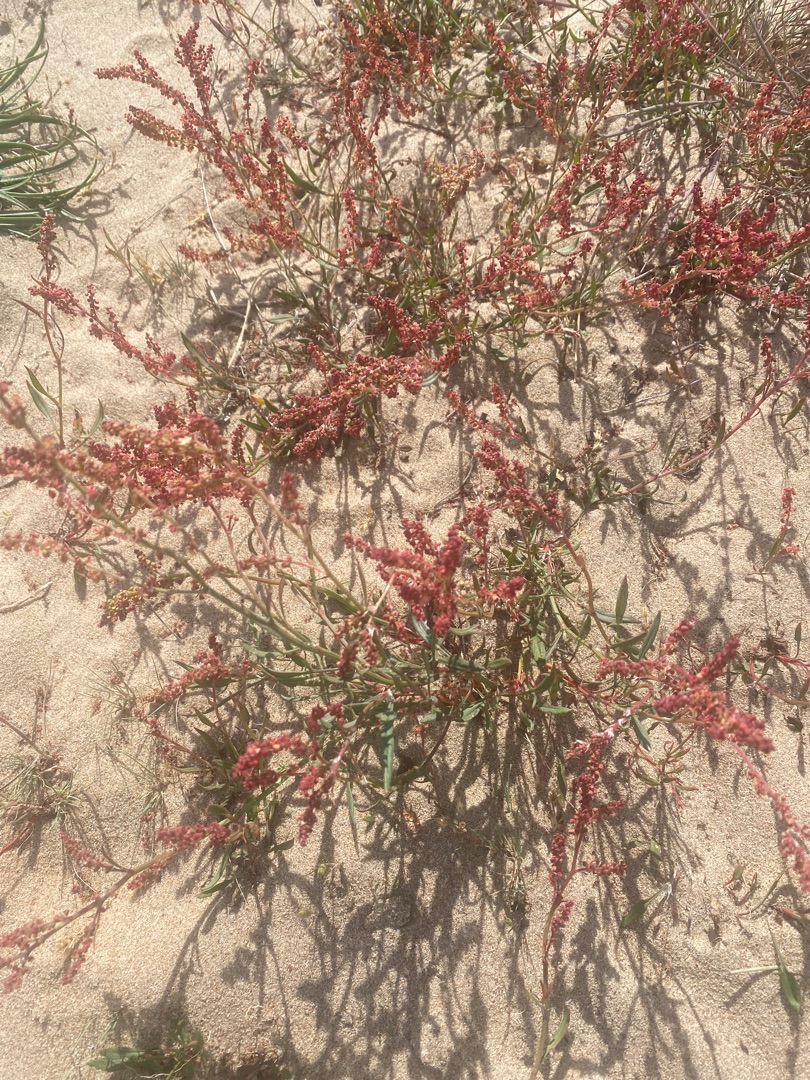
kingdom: Plantae
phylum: Tracheophyta
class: Magnoliopsida
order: Caryophyllales
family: Polygonaceae
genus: Rumex
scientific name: Rumex acetosella
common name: Rødknæ
